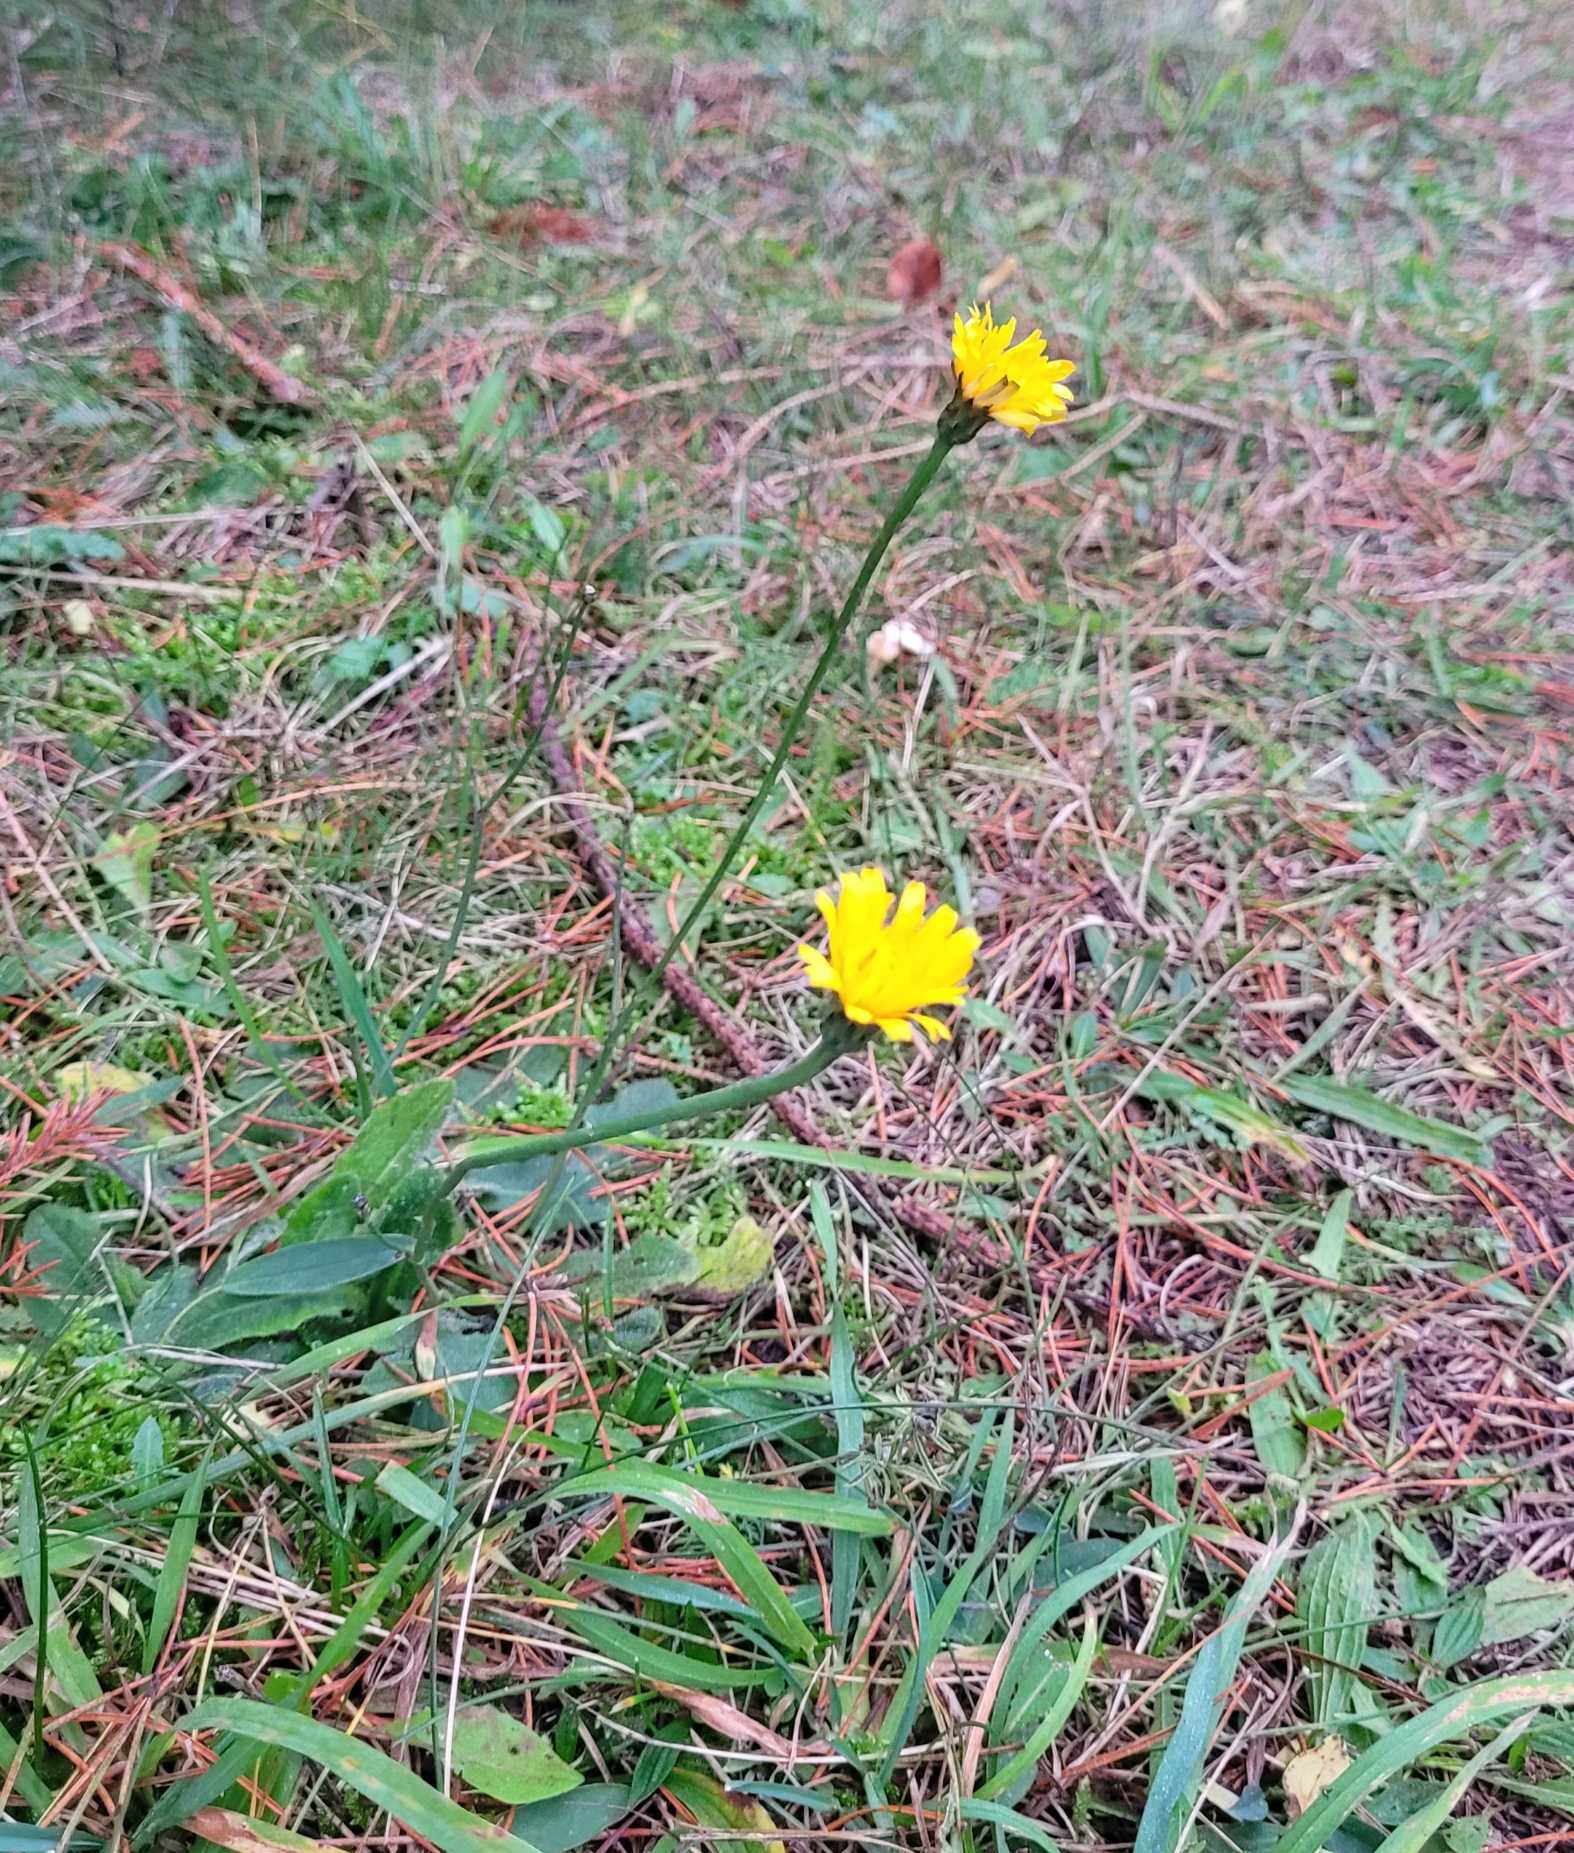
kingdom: Plantae
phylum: Tracheophyta
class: Magnoliopsida
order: Asterales
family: Asteraceae
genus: Hypochaeris
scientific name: Hypochaeris radicata
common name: Almindelig kongepen
